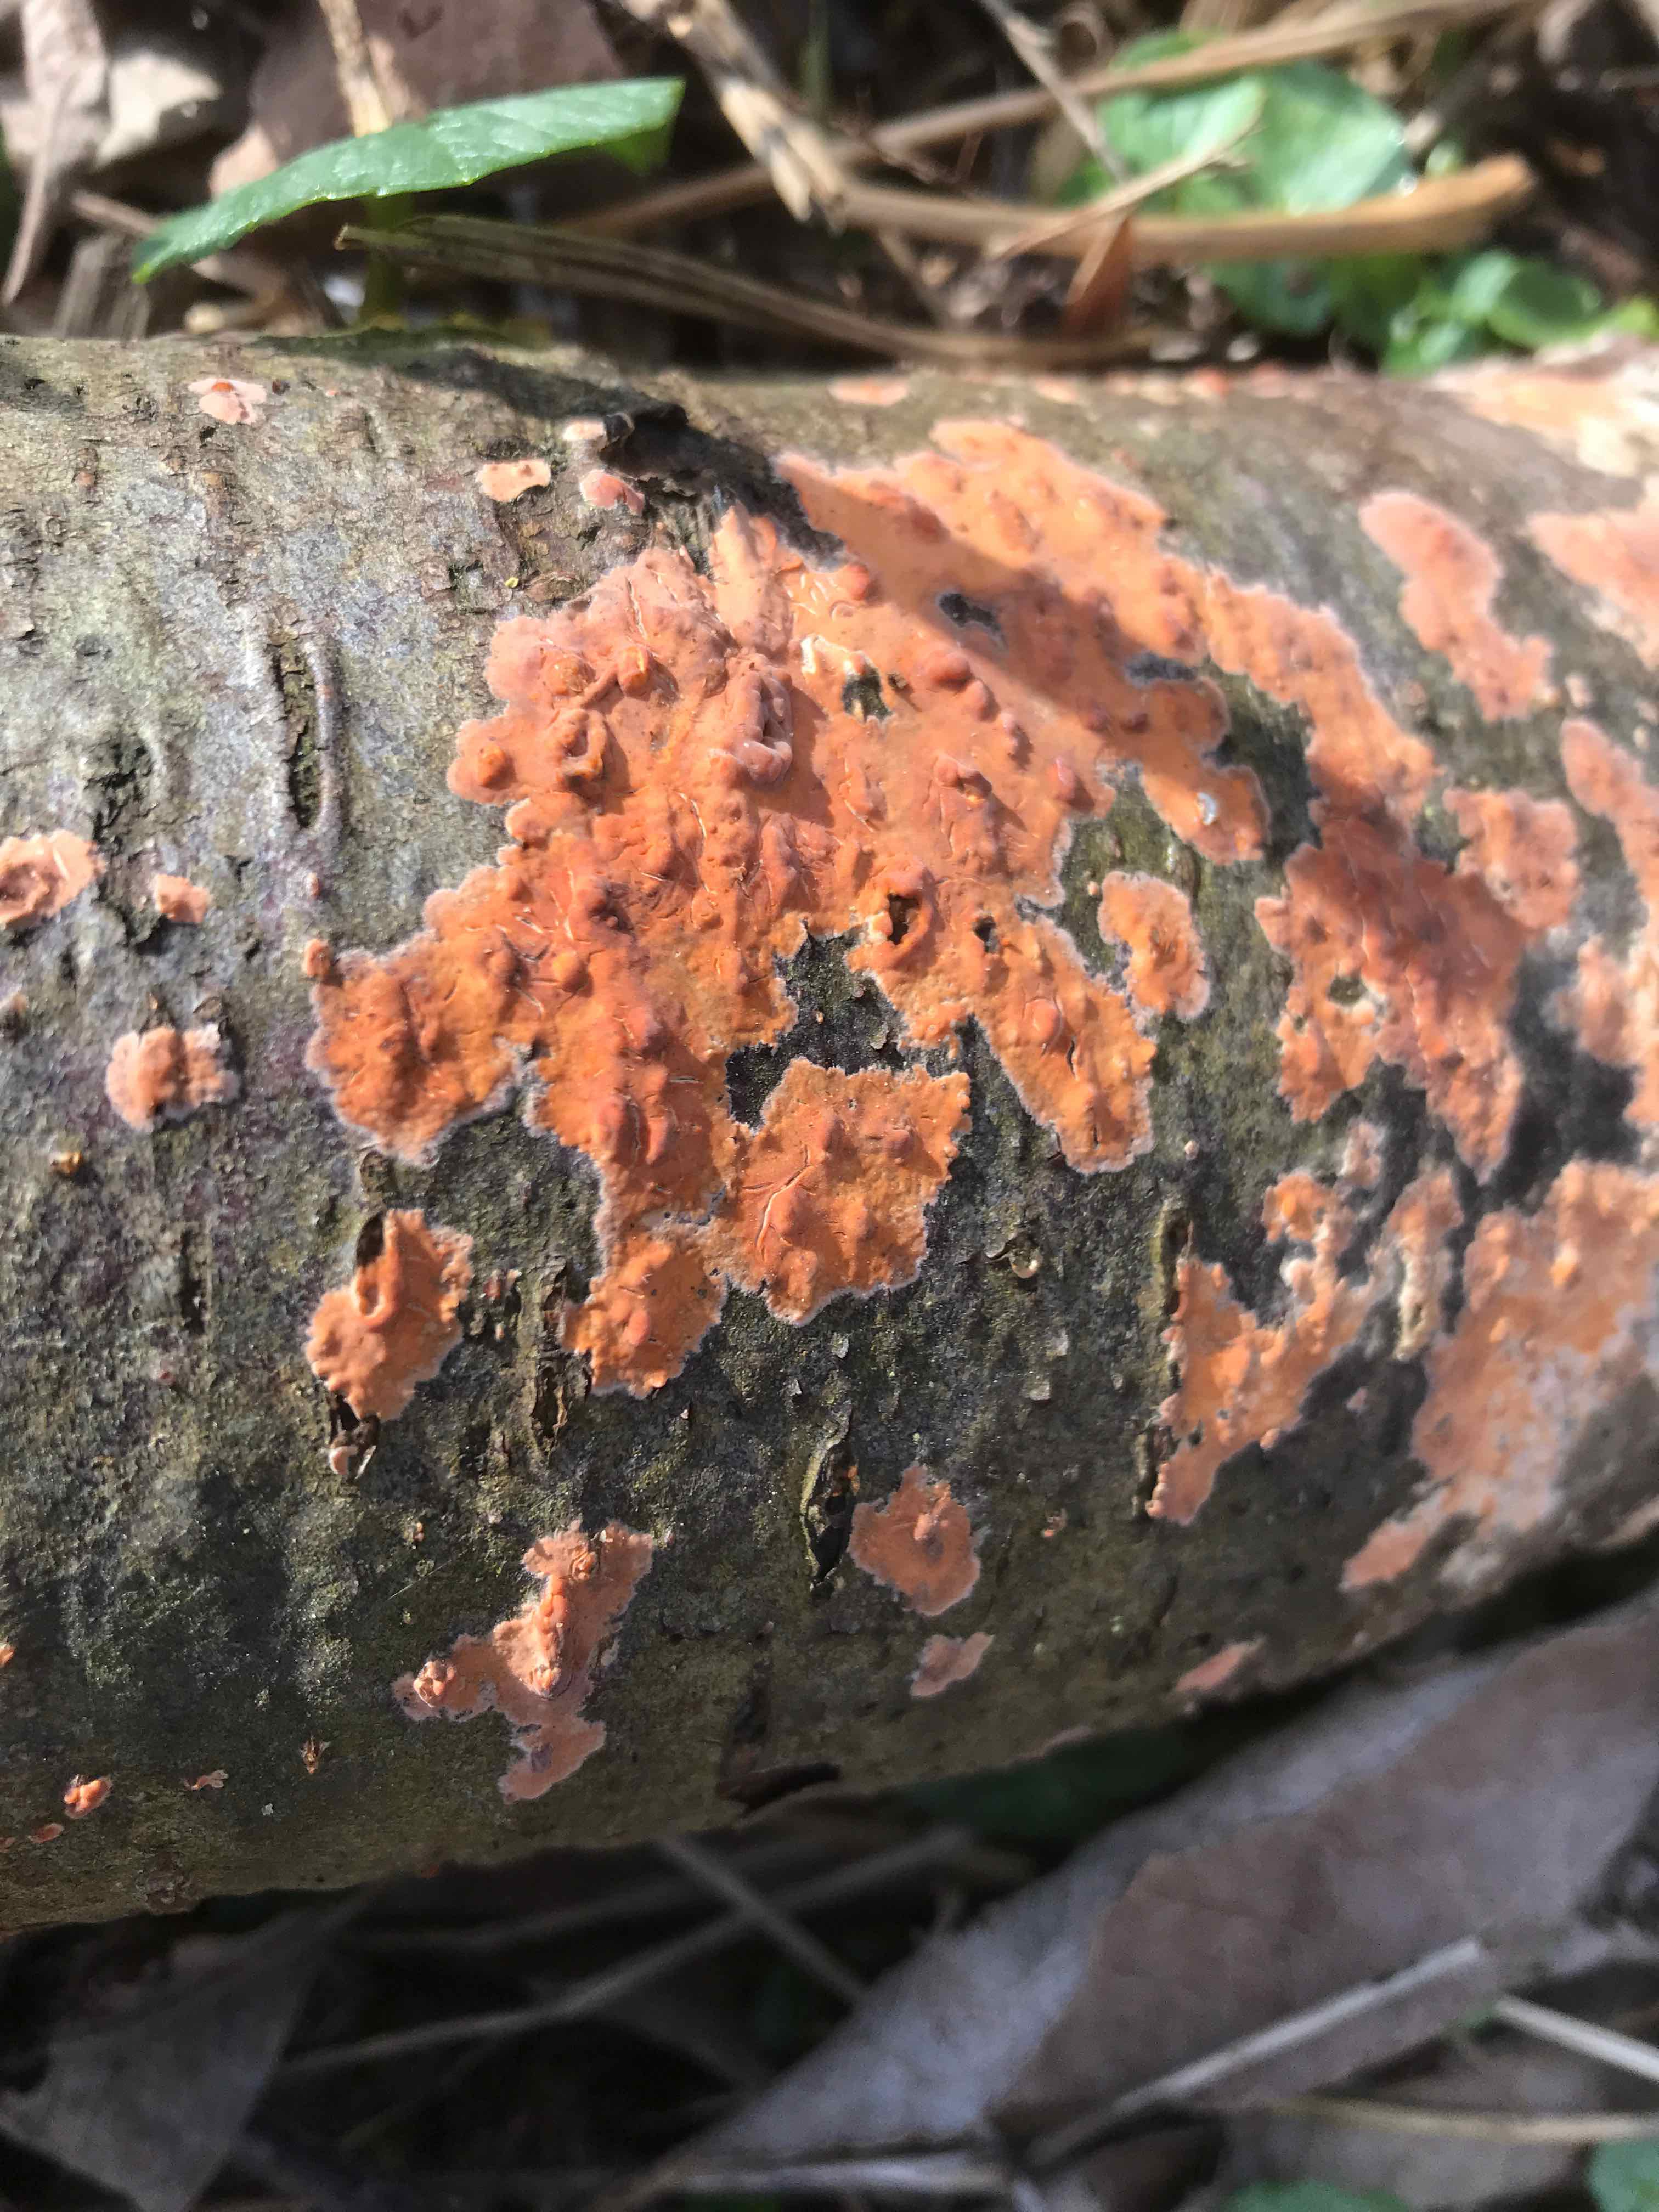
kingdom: Fungi
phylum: Basidiomycota
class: Agaricomycetes
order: Russulales
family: Peniophoraceae
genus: Peniophora
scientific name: Peniophora incarnata
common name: laksefarvet voksskind
